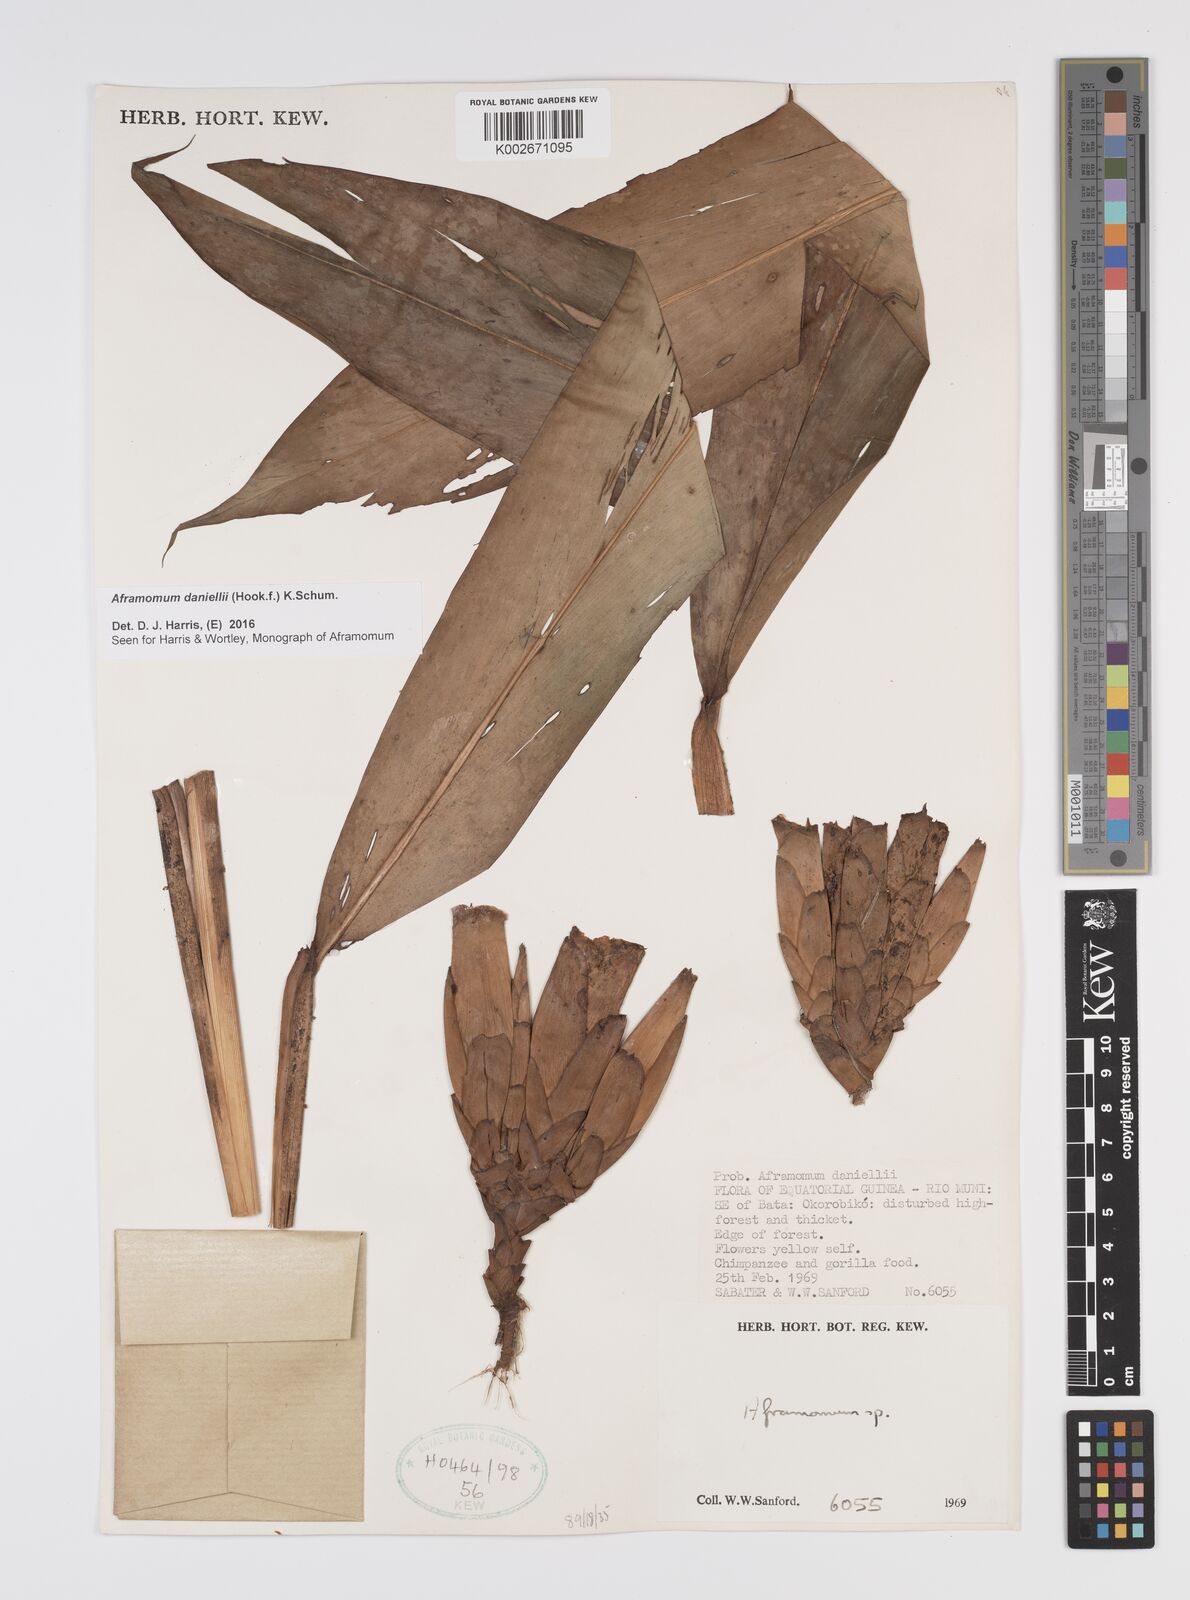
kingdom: Plantae
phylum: Tracheophyta
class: Liliopsida
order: Zingiberales
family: Zingiberaceae
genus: Aframomum
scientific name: Aframomum daniellii
